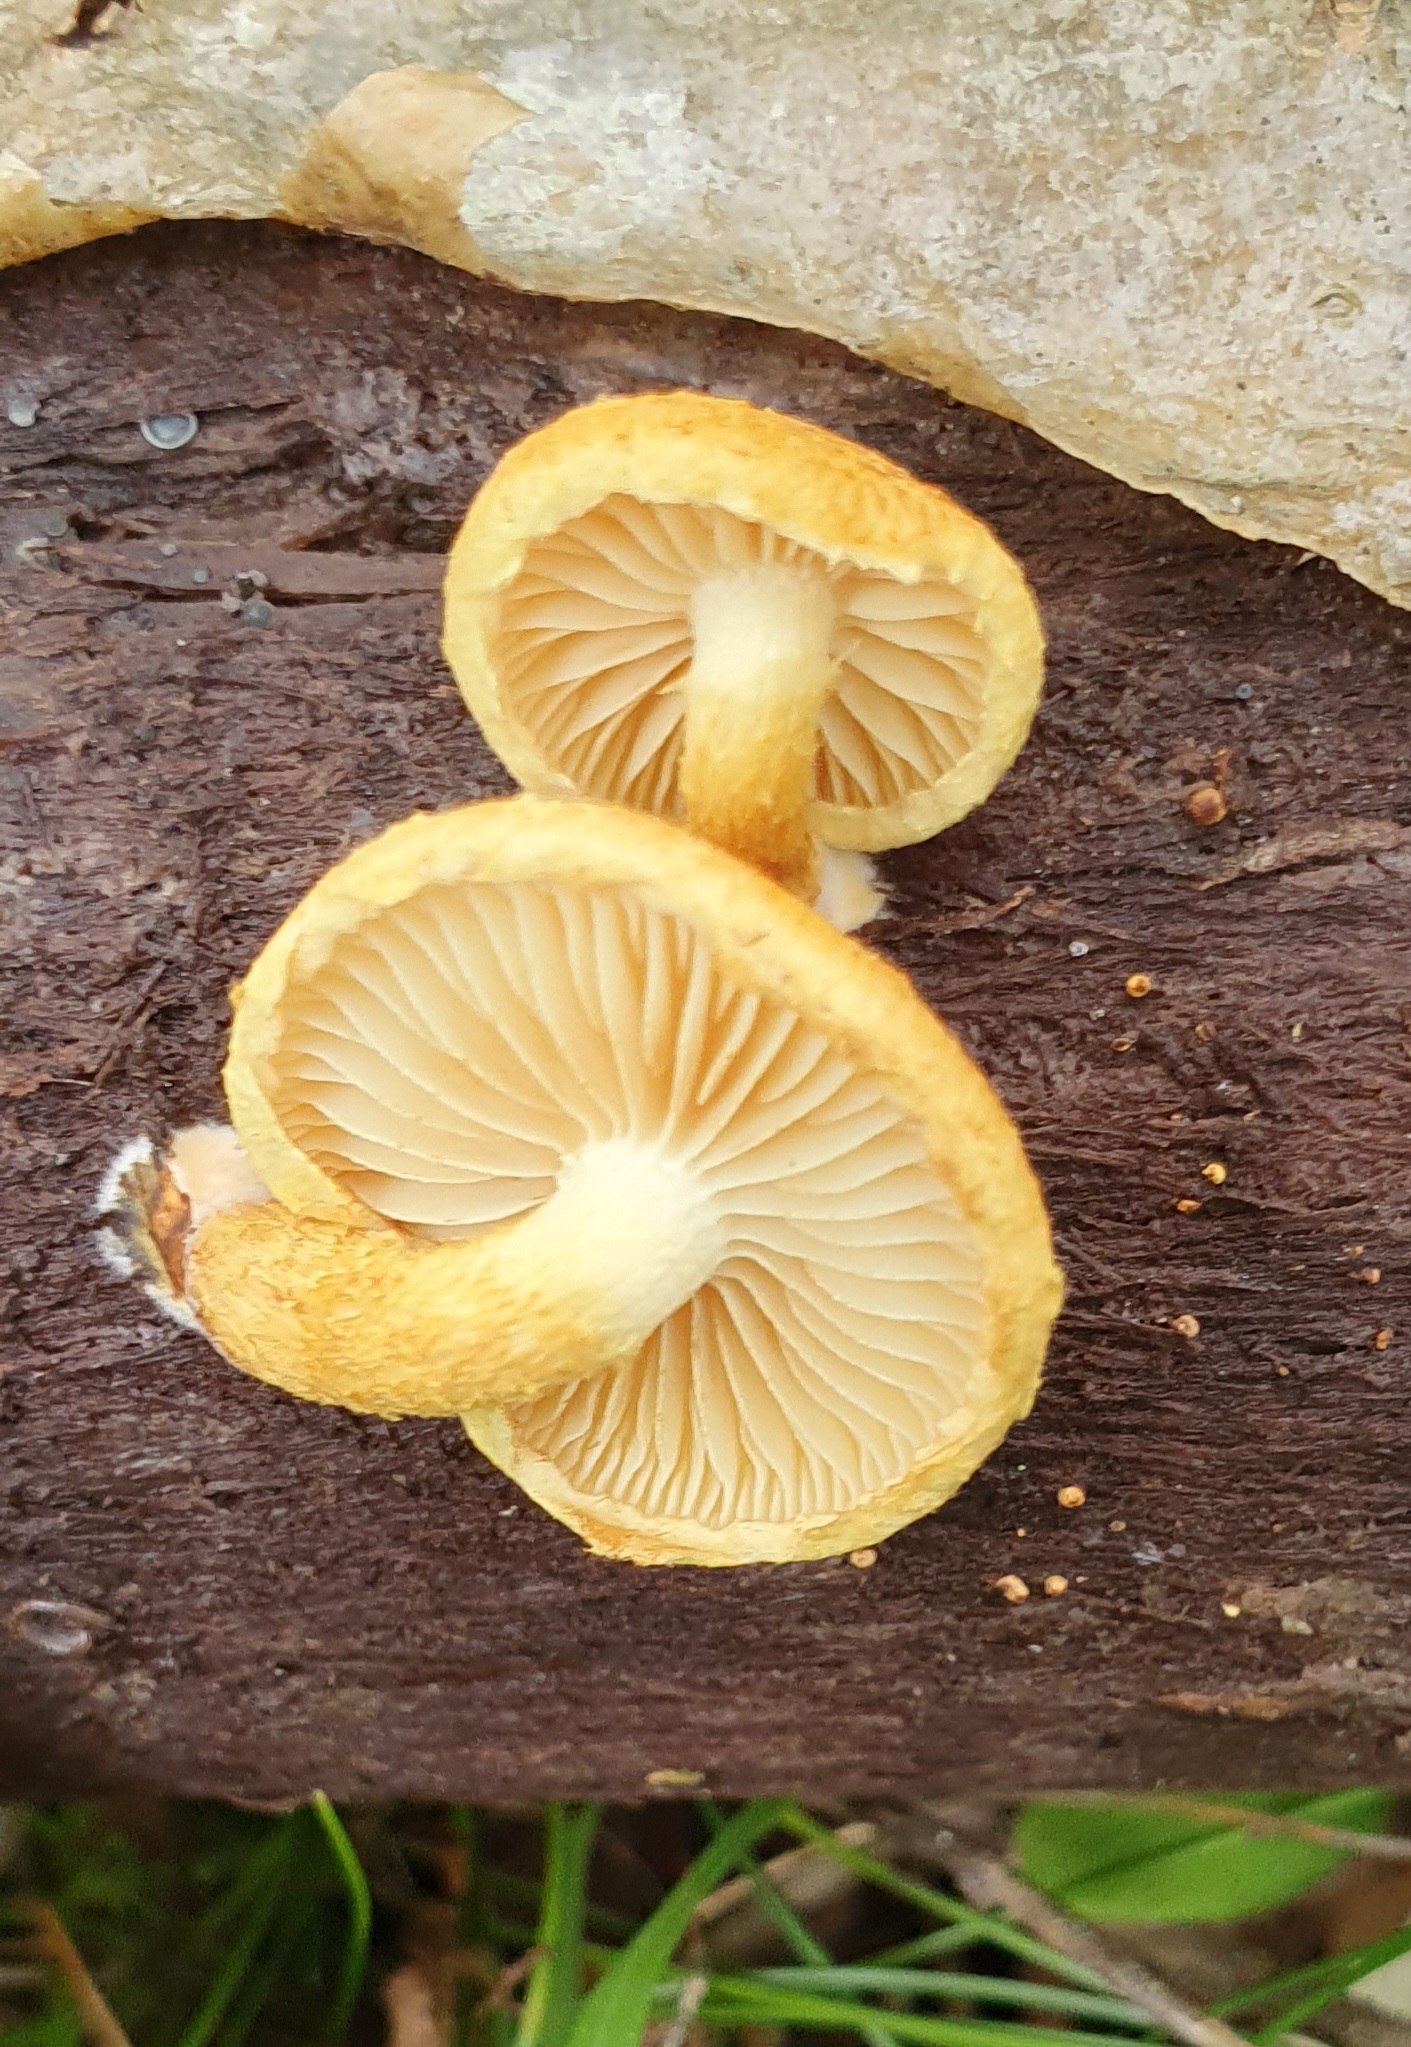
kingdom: Fungi
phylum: Basidiomycota
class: Agaricomycetes
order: Agaricales
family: Strophariaceae
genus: Pholiota
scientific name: Pholiota tuberculosa
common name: finskællet skælhat
